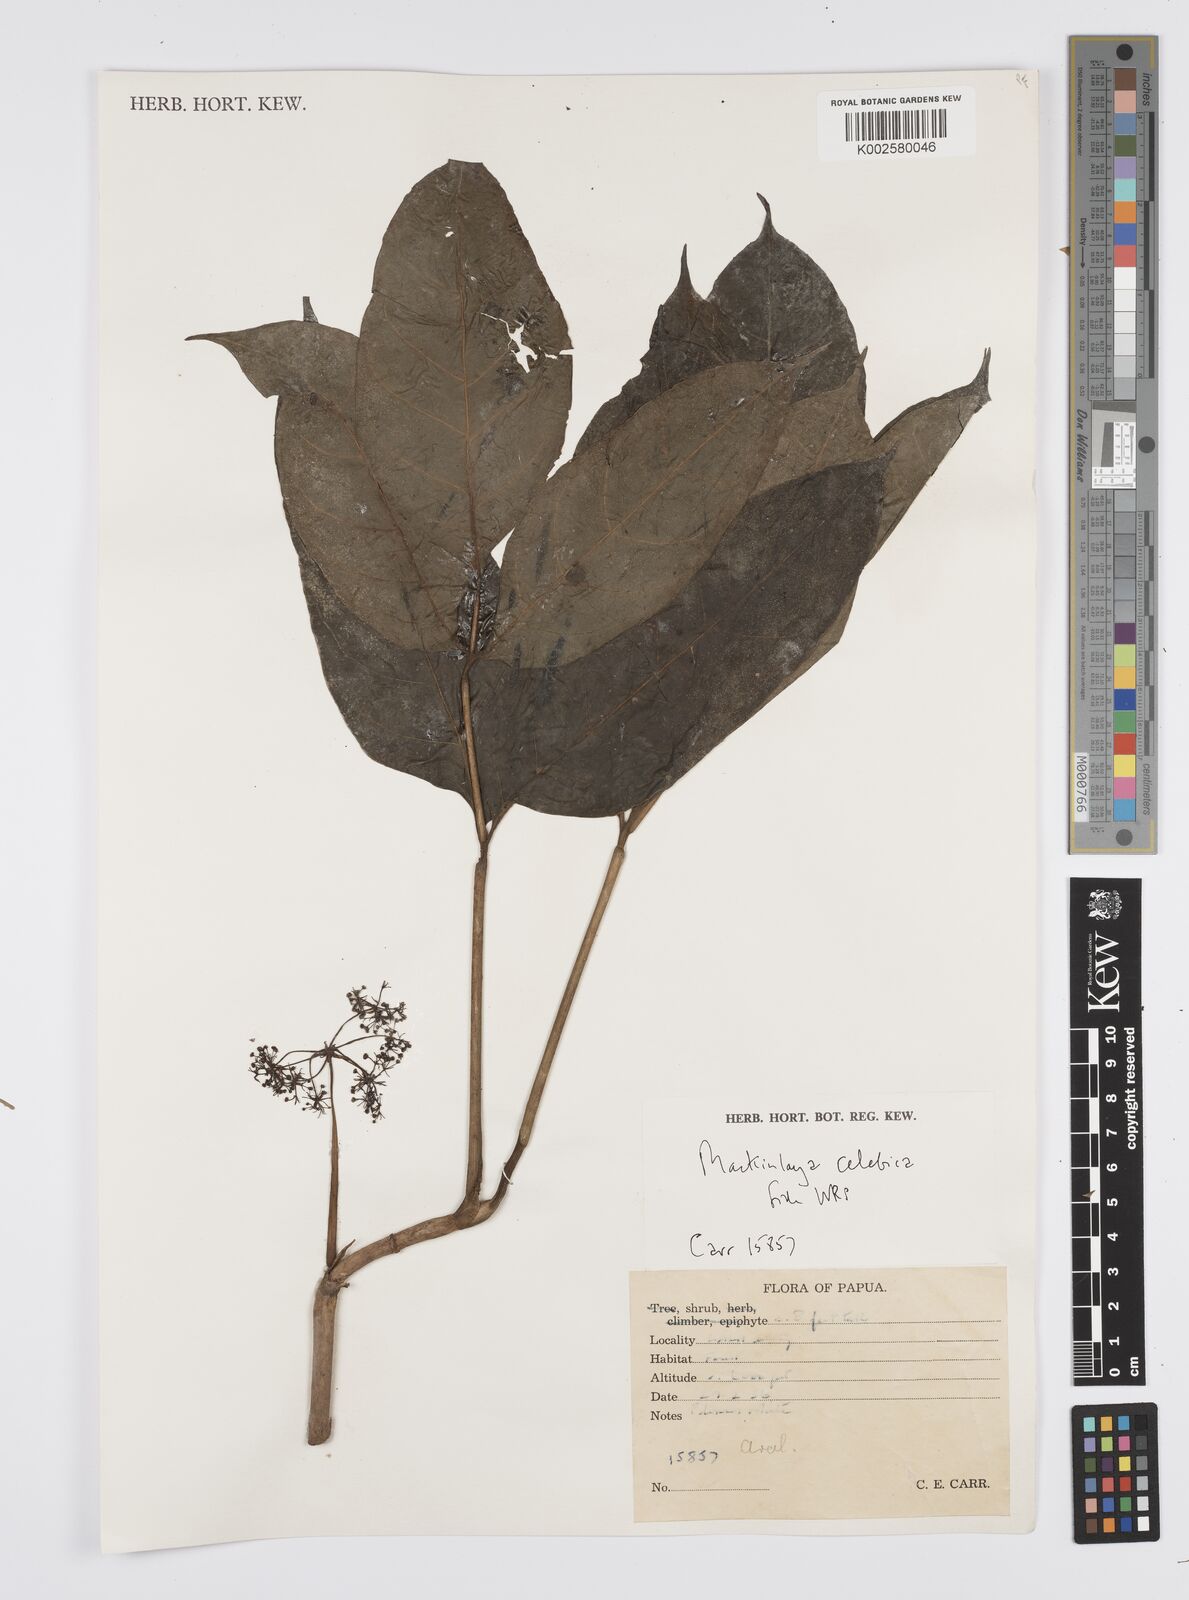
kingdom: Plantae
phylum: Tracheophyta
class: Magnoliopsida
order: Apiales
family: Apiaceae
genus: Mackinlaya
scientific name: Mackinlaya celebica
